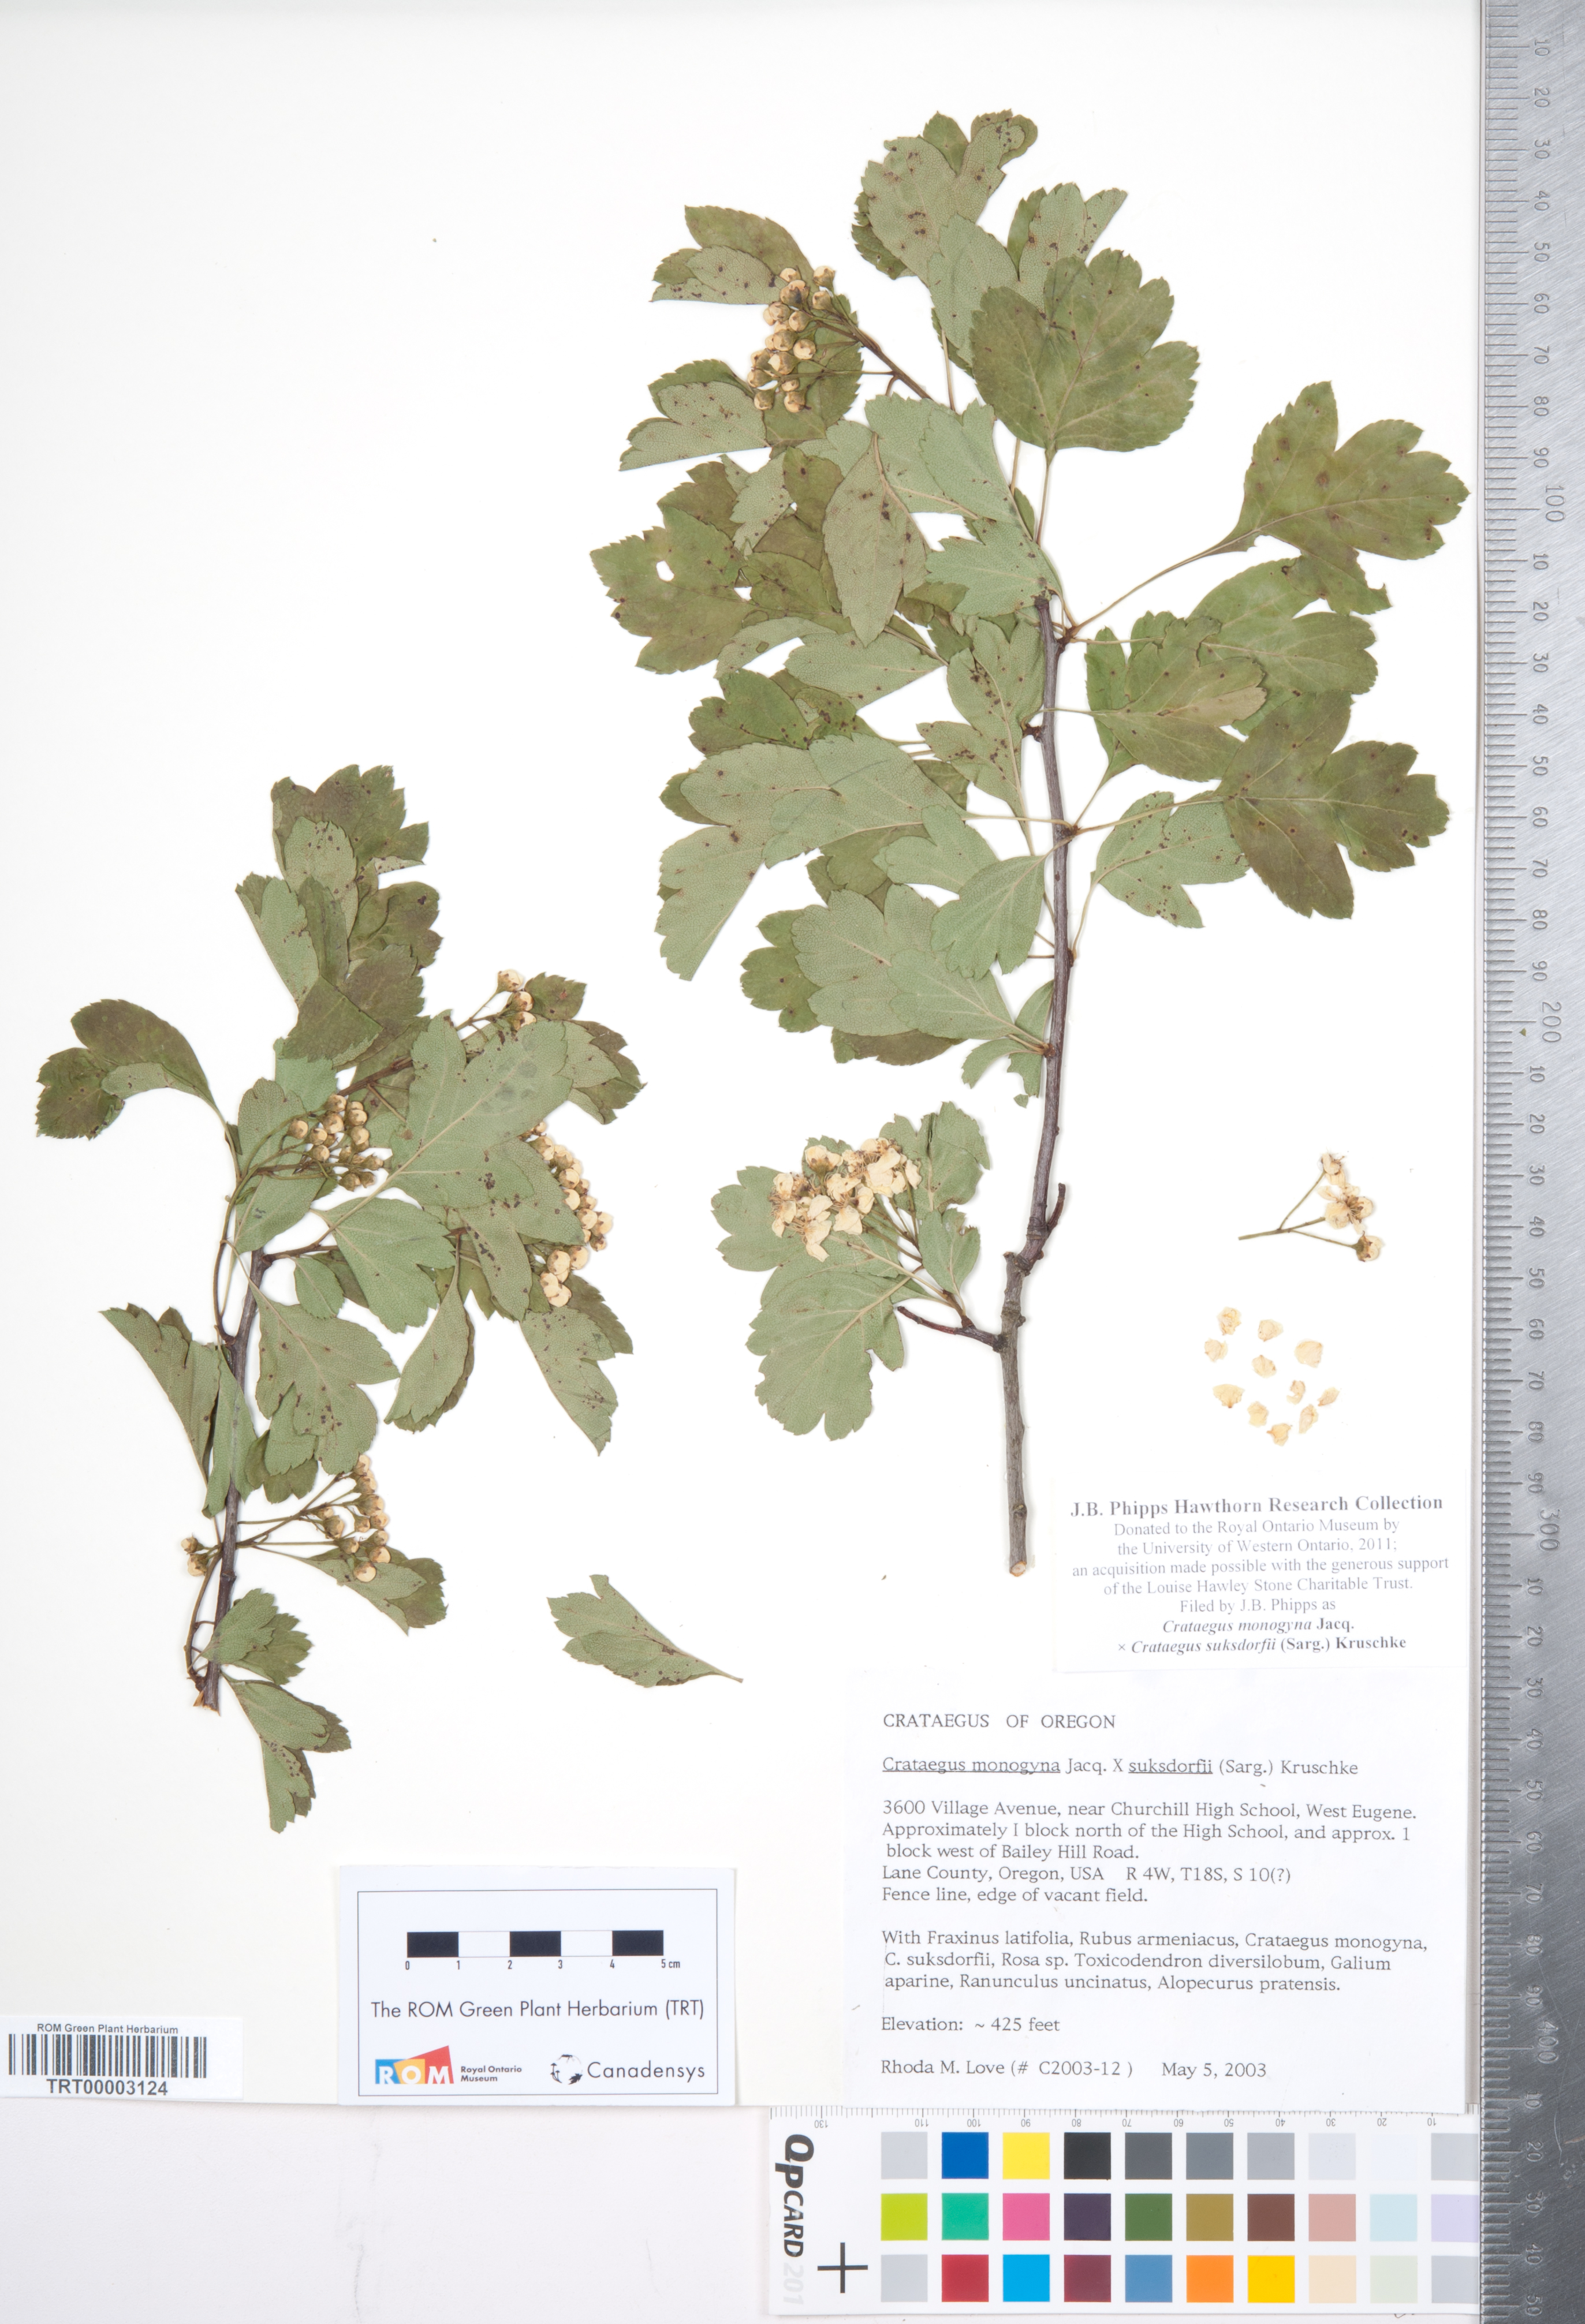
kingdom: Plantae
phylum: Tracheophyta
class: Magnoliopsida
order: Rosales
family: Rosaceae
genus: Crataegus
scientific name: Crataegus
